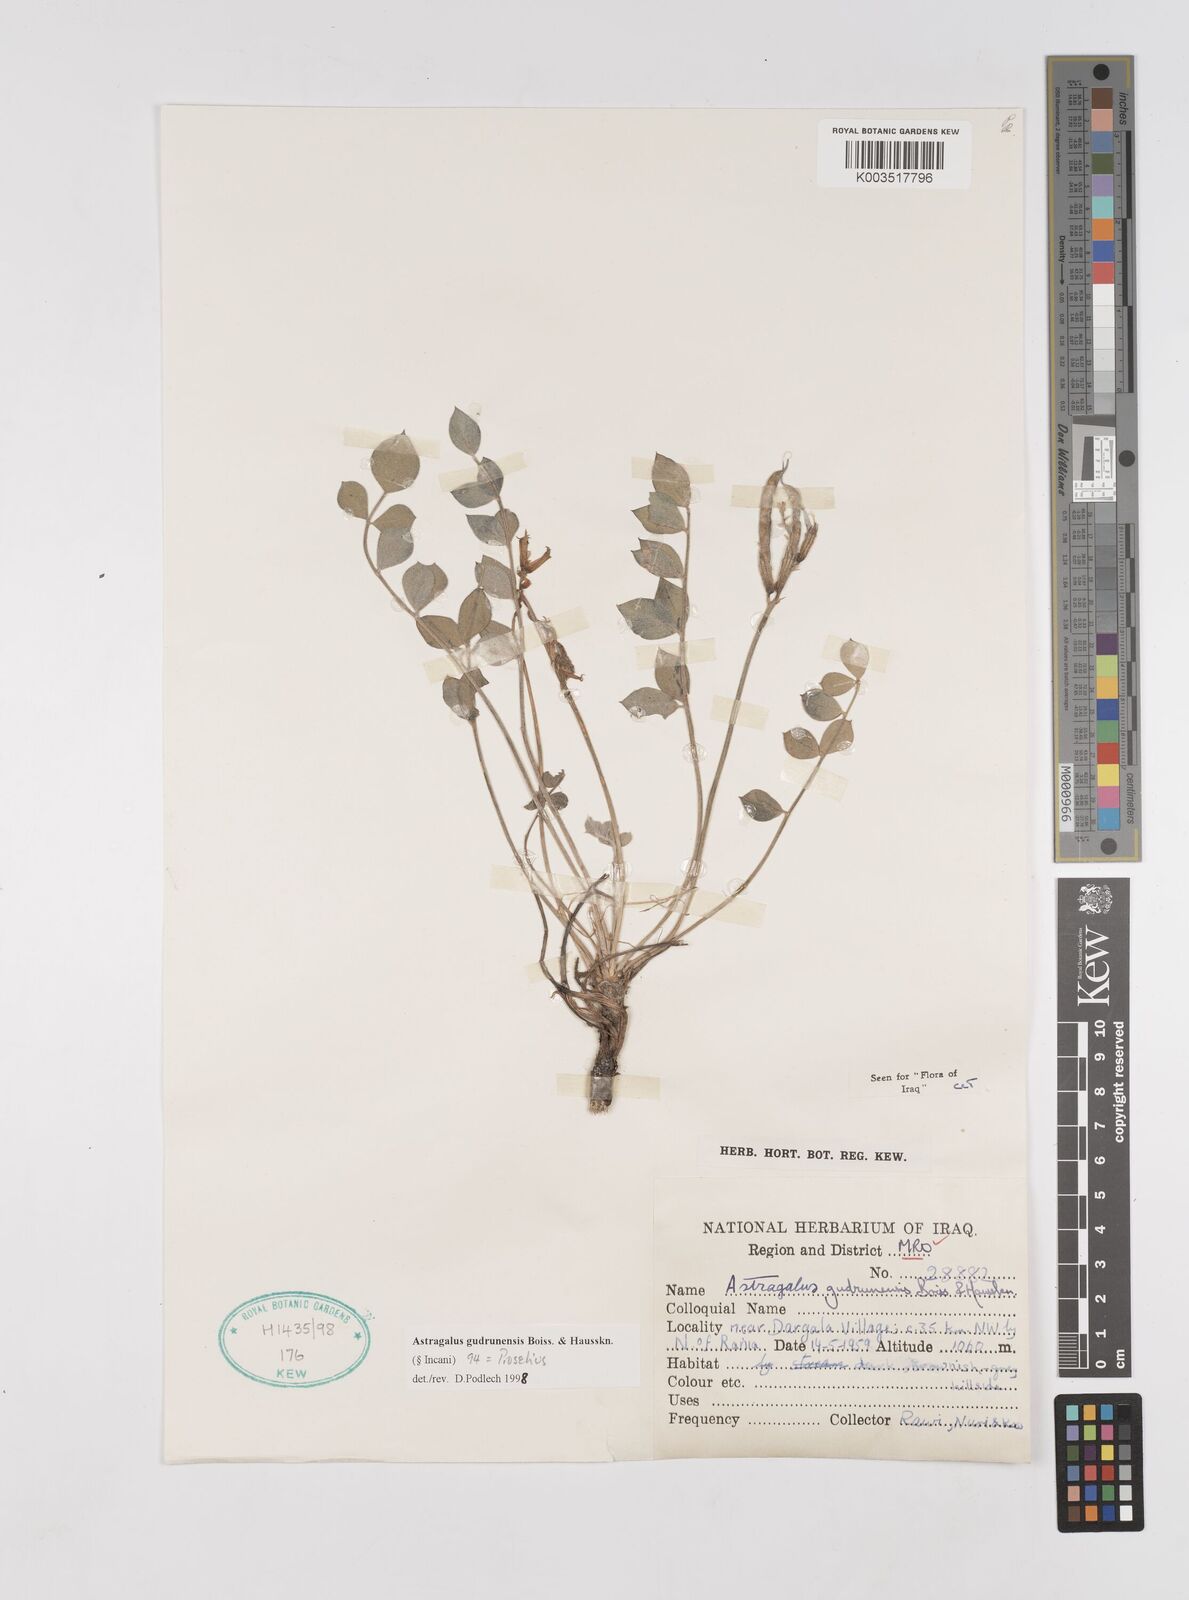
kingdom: Plantae
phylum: Tracheophyta
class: Magnoliopsida
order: Fabales
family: Fabaceae
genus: Astragalus
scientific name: Astragalus gudrunensis
